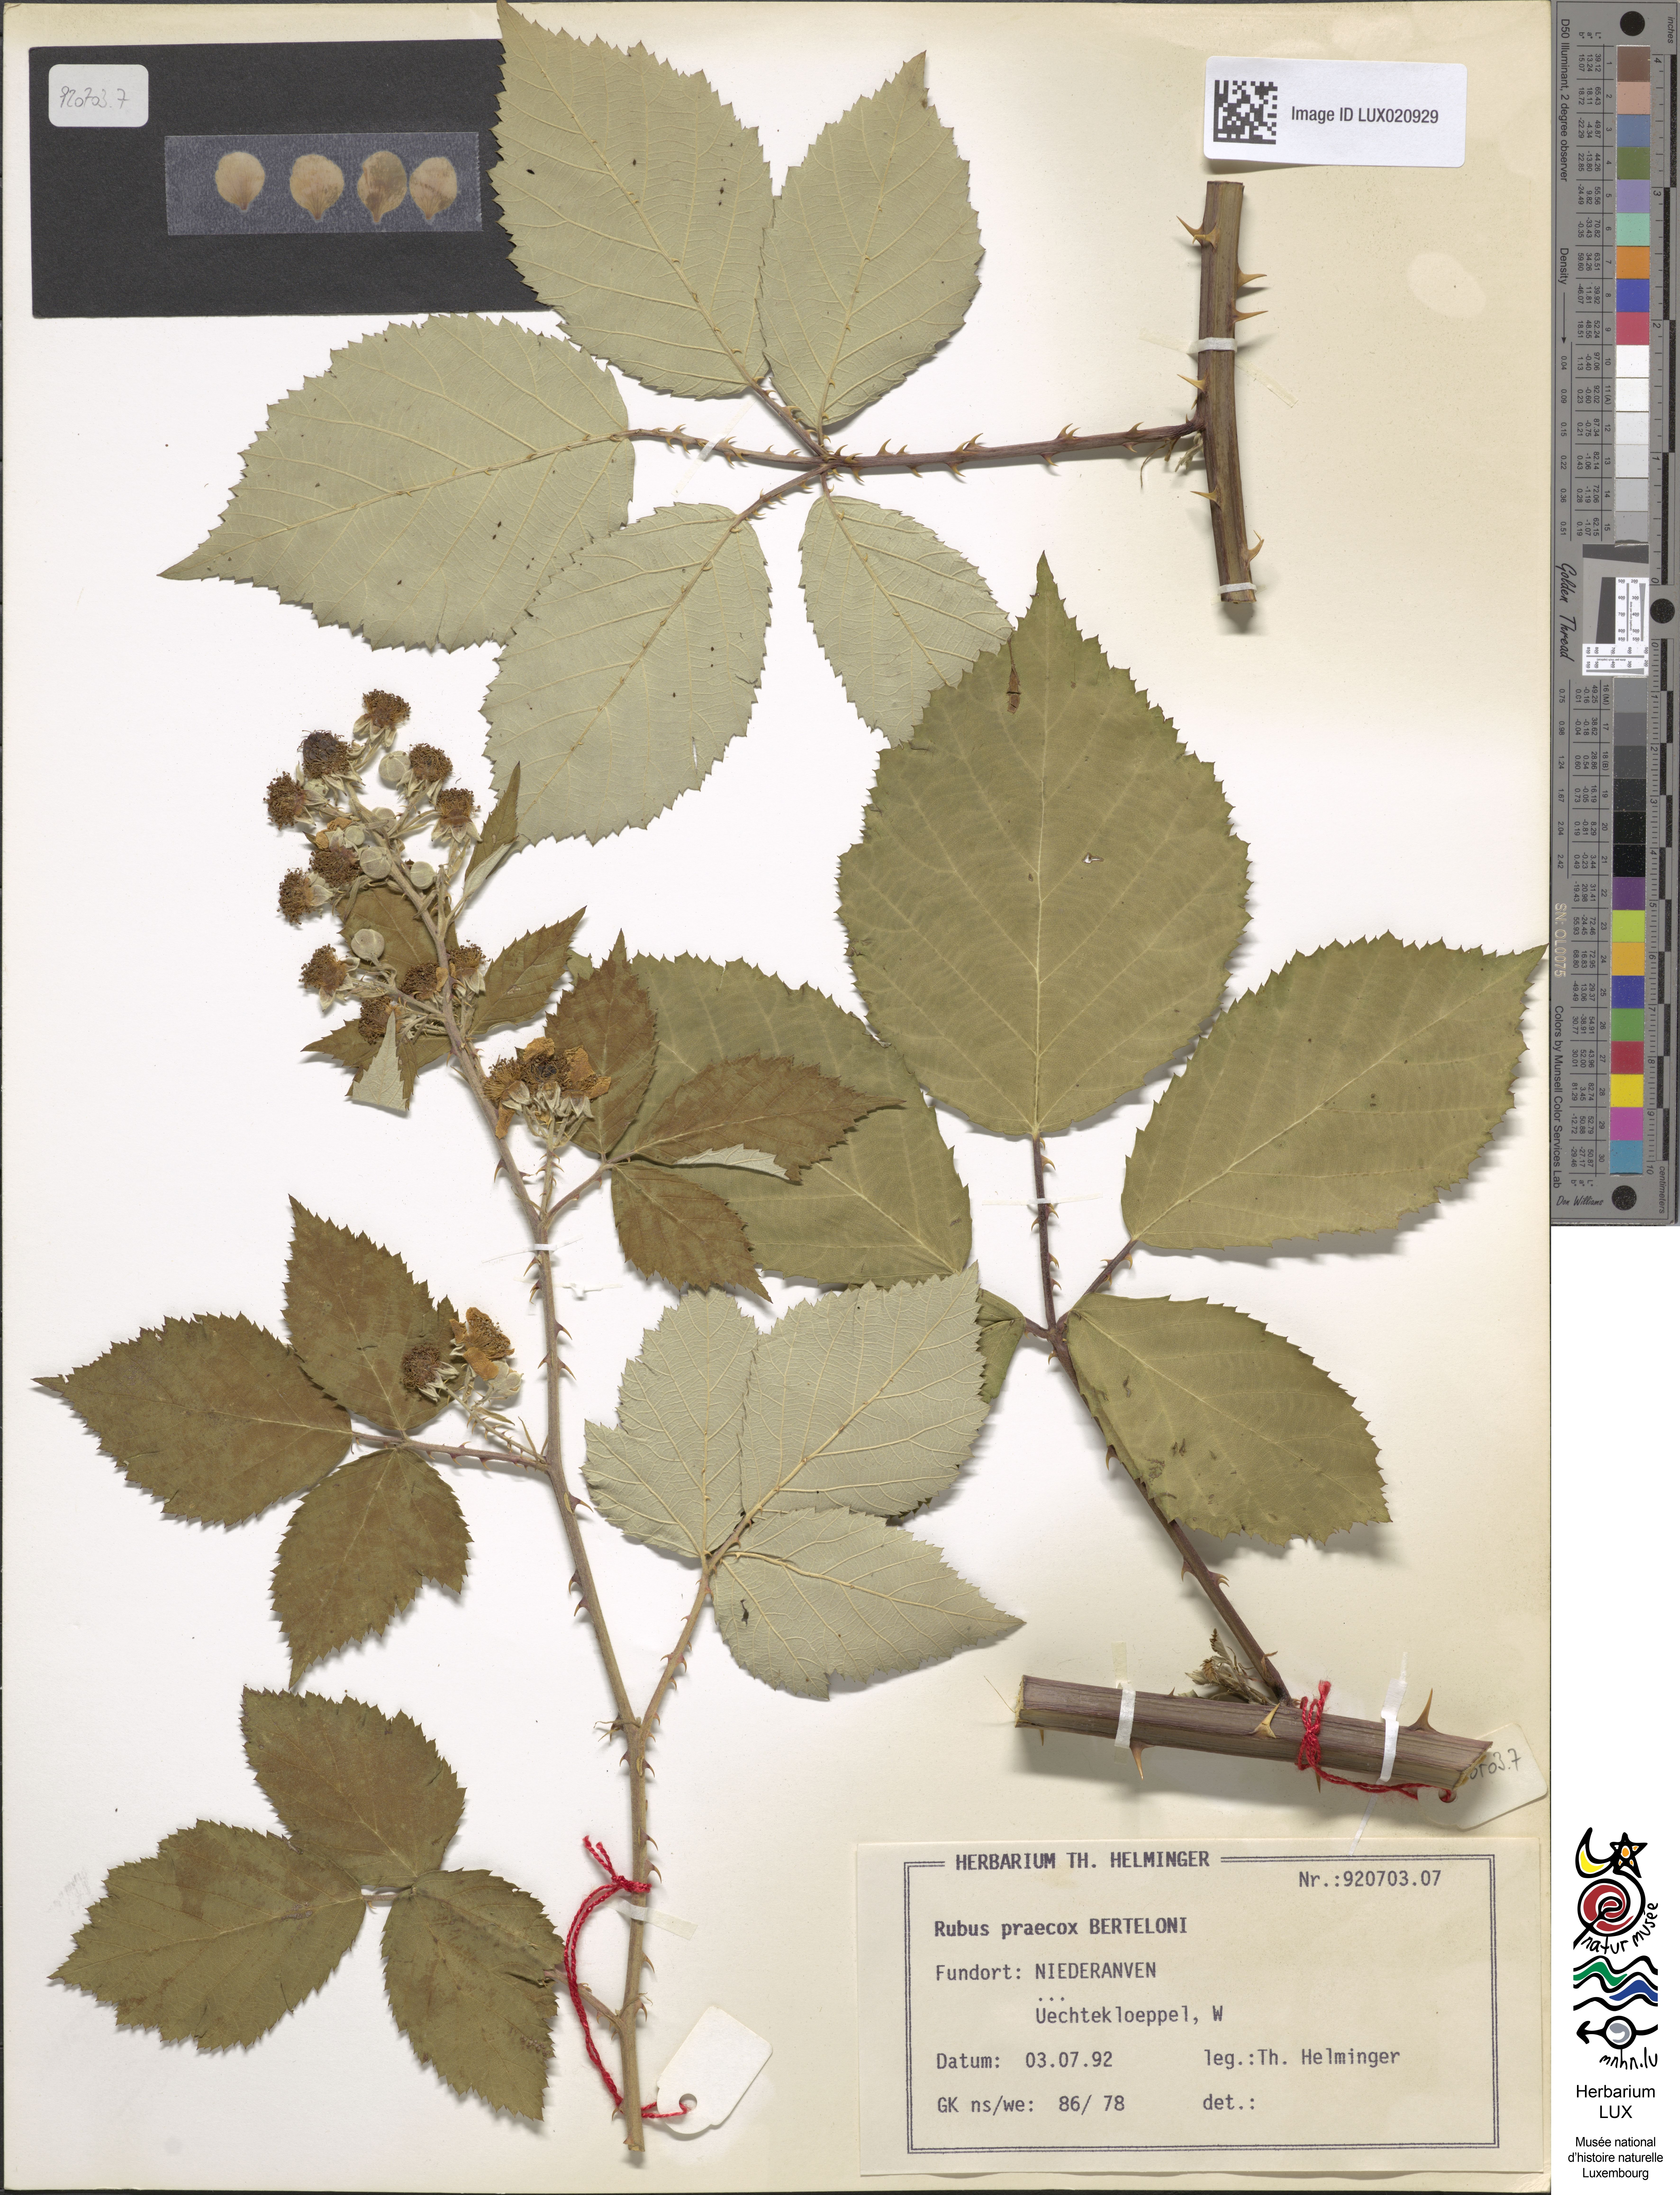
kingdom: Plantae
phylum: Tracheophyta
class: Magnoliopsida
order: Rosales
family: Rosaceae
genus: Rubus
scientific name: Rubus praecox
